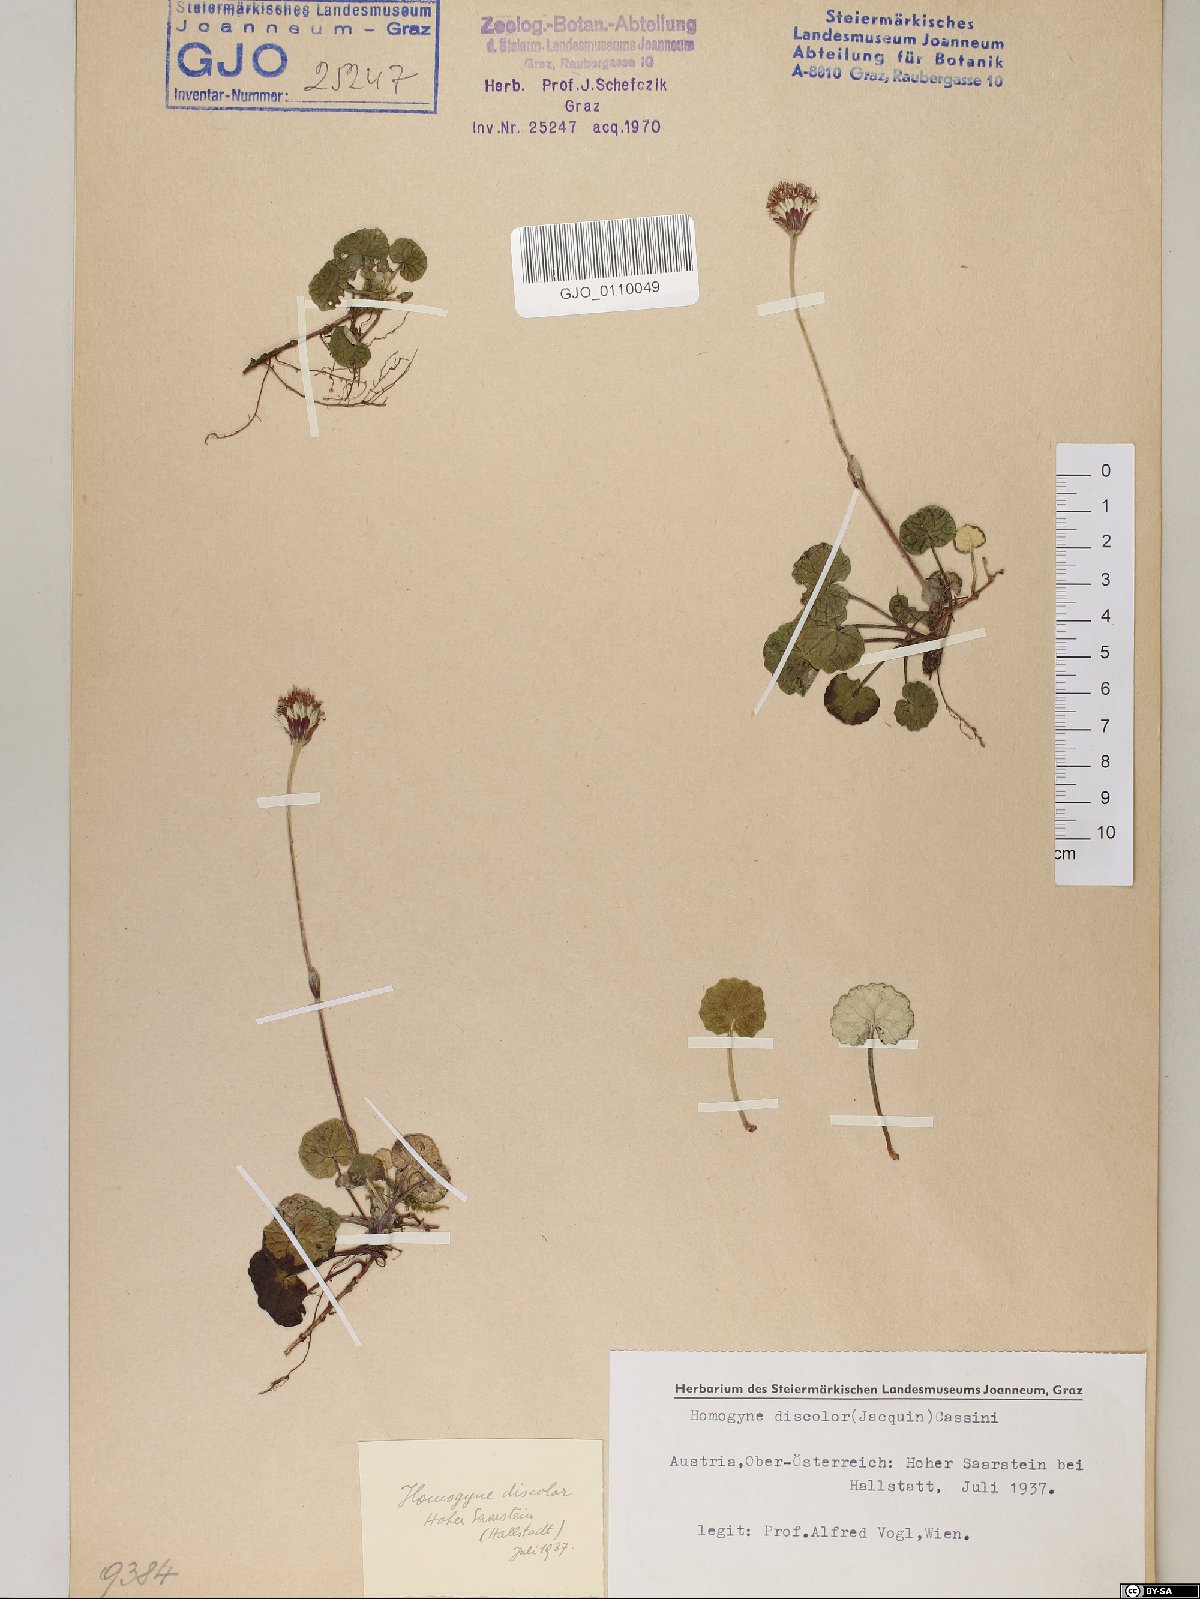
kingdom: Plantae
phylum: Tracheophyta
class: Magnoliopsida
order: Asterales
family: Asteraceae
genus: Homogyne
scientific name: Homogyne discolor
